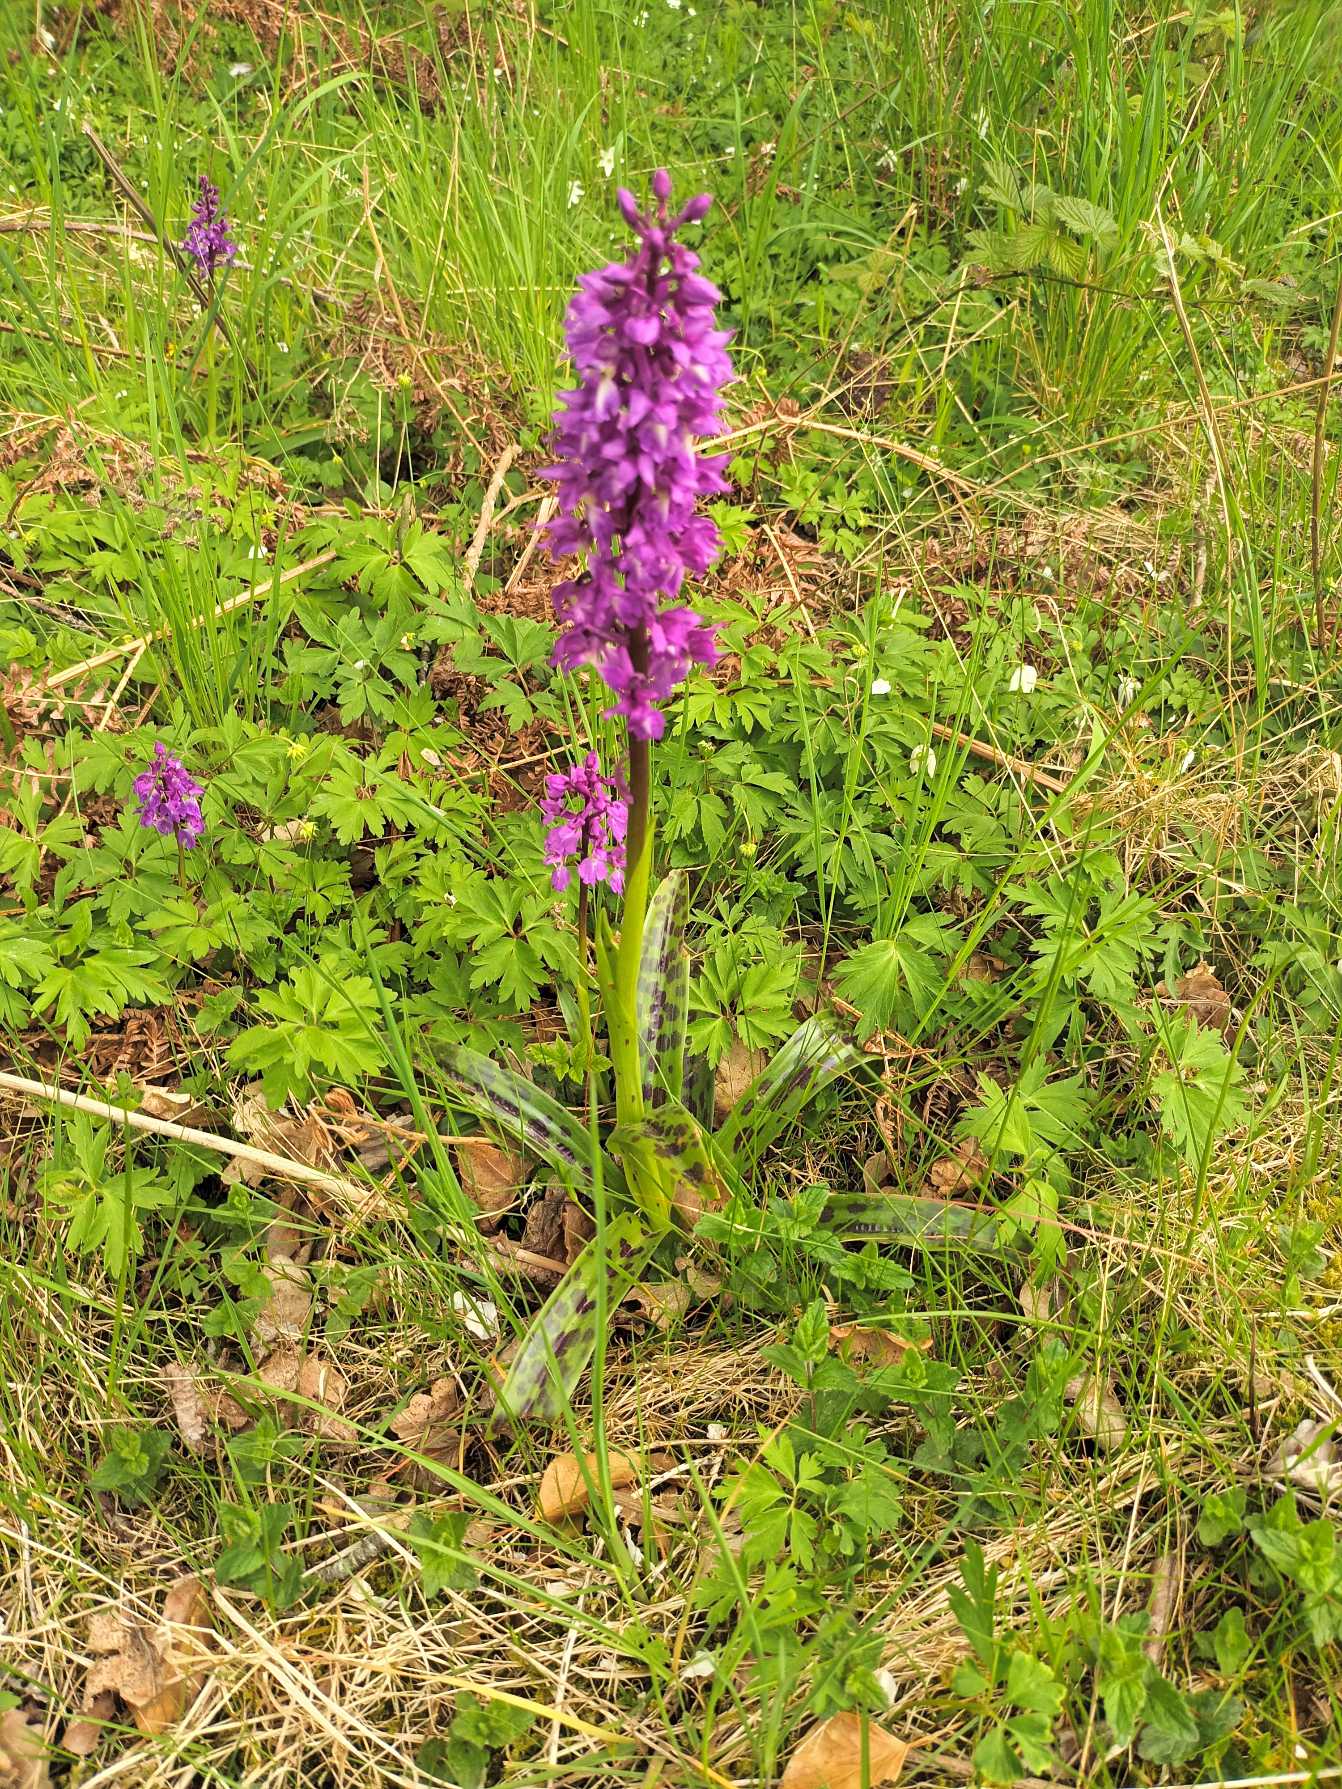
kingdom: Plantae
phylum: Tracheophyta
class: Liliopsida
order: Asparagales
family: Orchidaceae
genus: Orchis
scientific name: Orchis mascula
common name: Tyndakset gøgeurt
